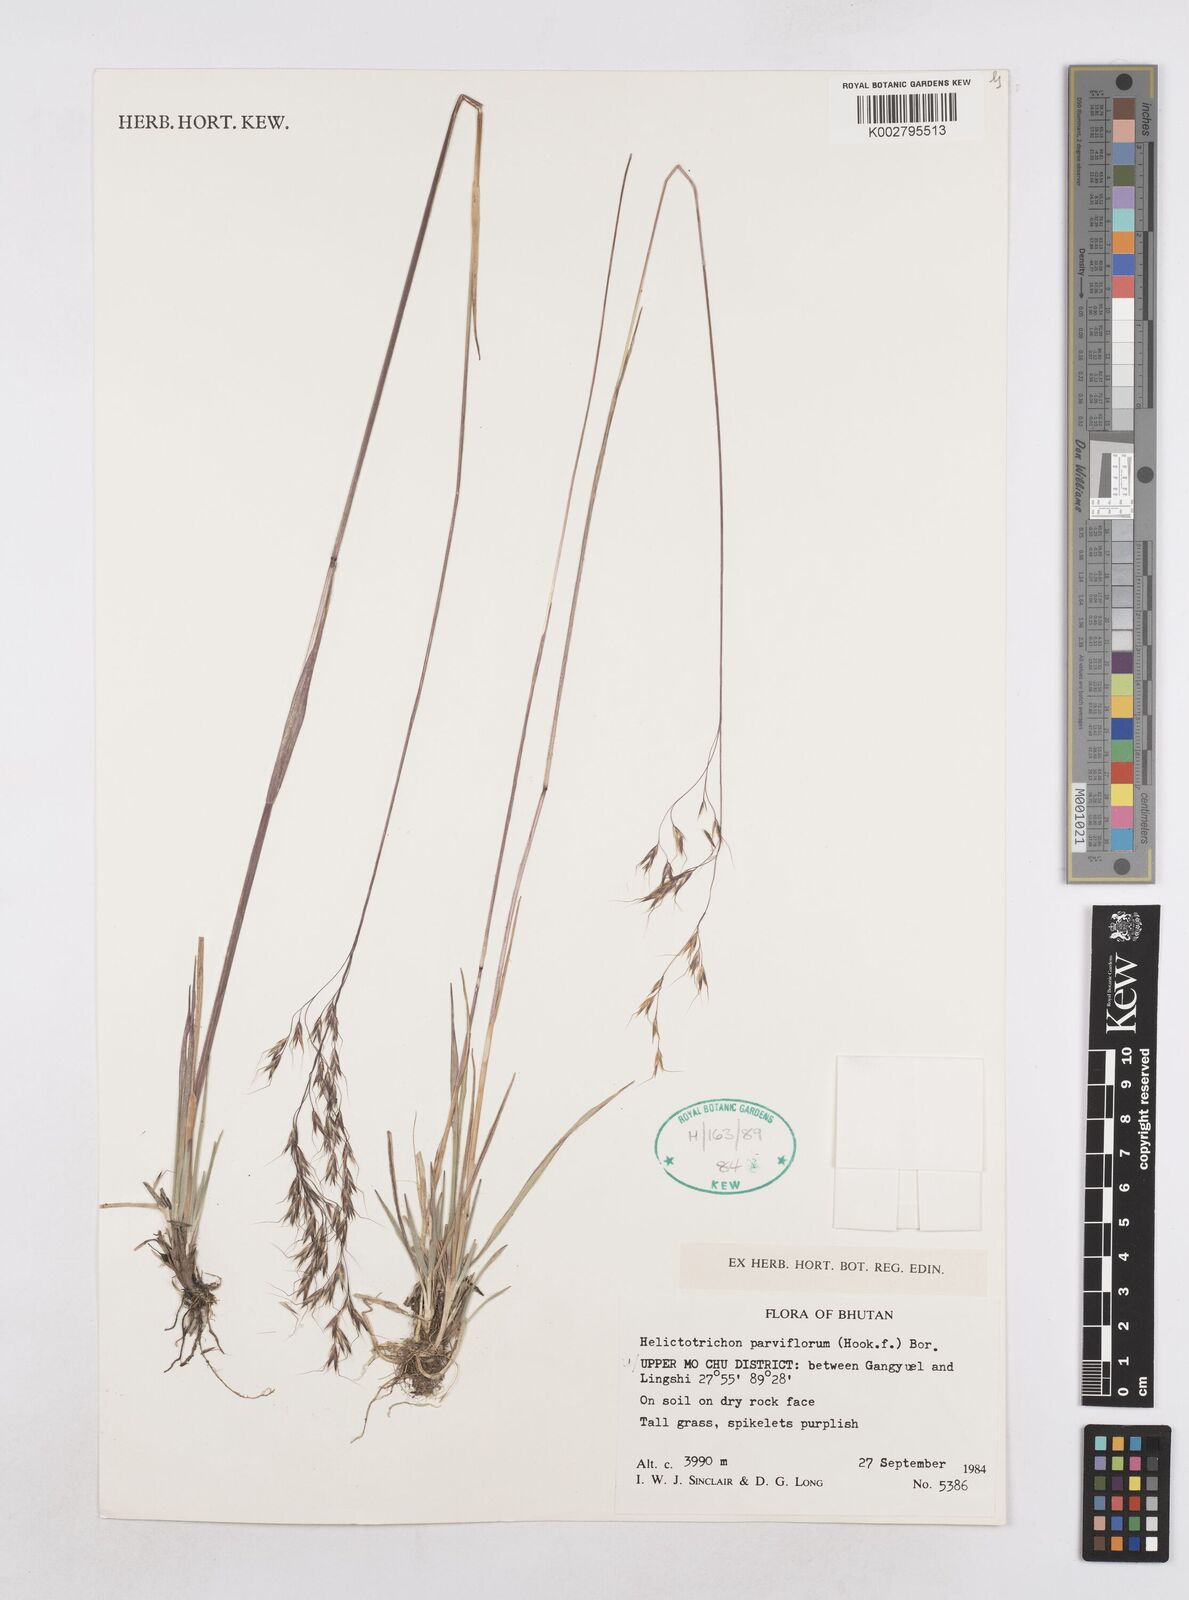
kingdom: Plantae
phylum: Tracheophyta
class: Liliopsida
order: Poales
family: Poaceae
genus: Trisetopsis
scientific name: Trisetopsis junghuhnii
